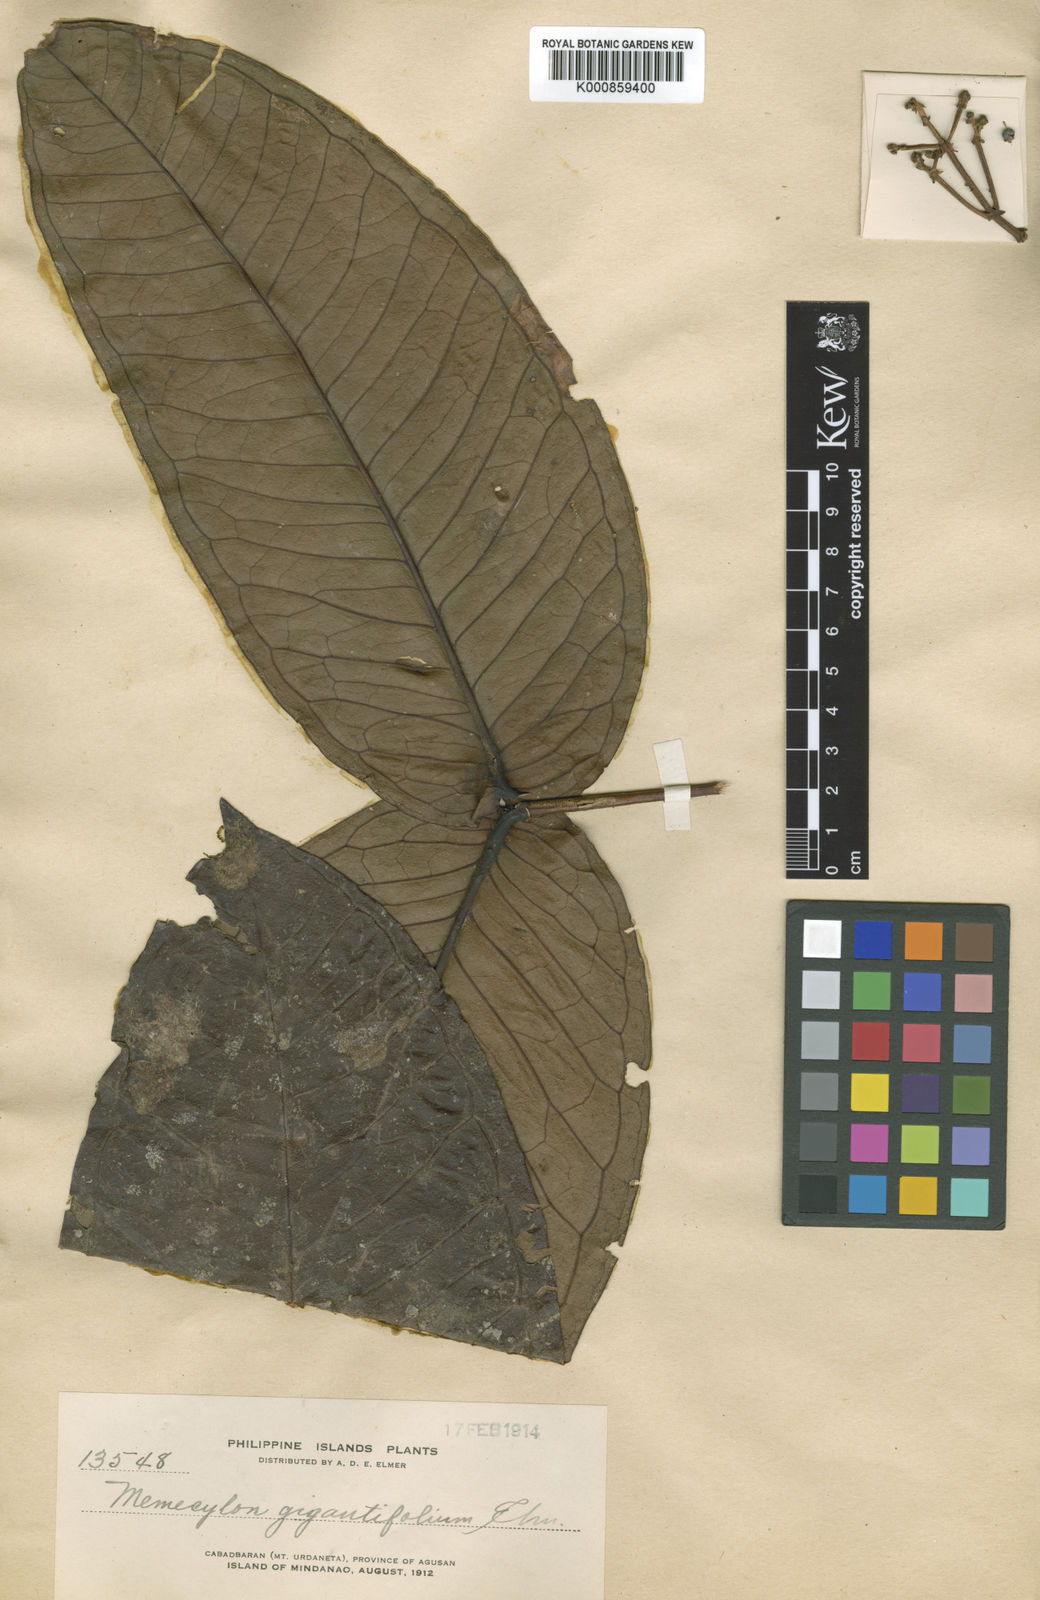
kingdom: Plantae
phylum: Tracheophyta
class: Magnoliopsida
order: Myrtales
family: Melastomataceae
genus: Memecylon
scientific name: Memecylon phanerophlebium
